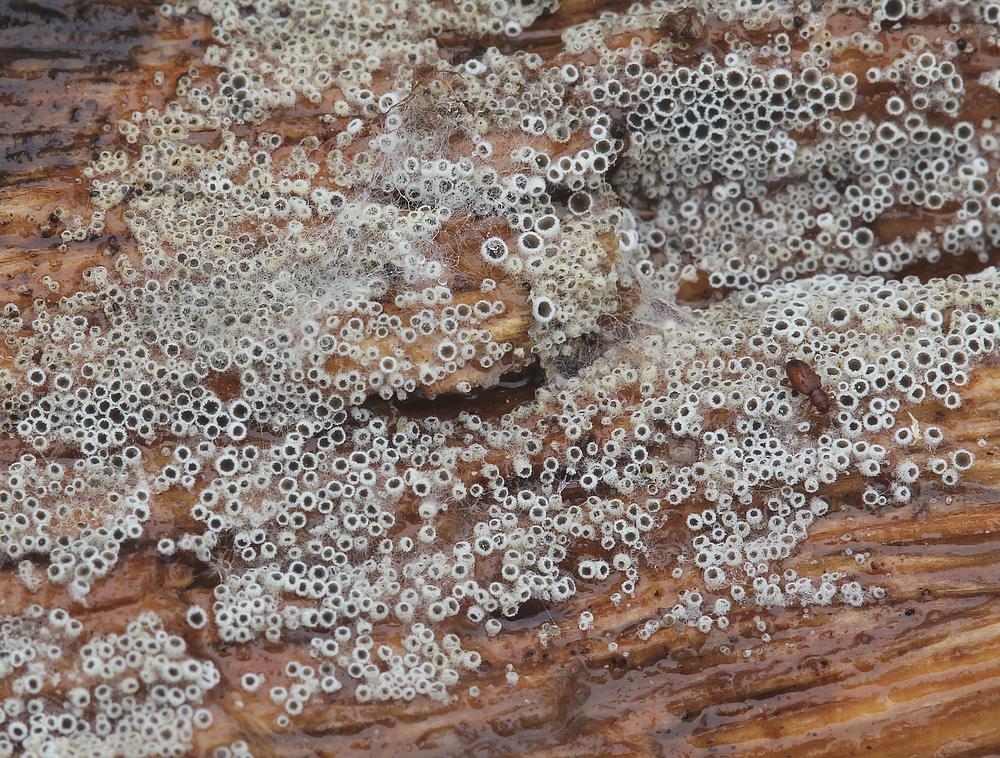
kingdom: Fungi
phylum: Ascomycota
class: Leotiomycetes
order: Helotiales
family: Arachnopezizaceae
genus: Eriopezia
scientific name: Eriopezia caesia
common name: ege-spindskive
